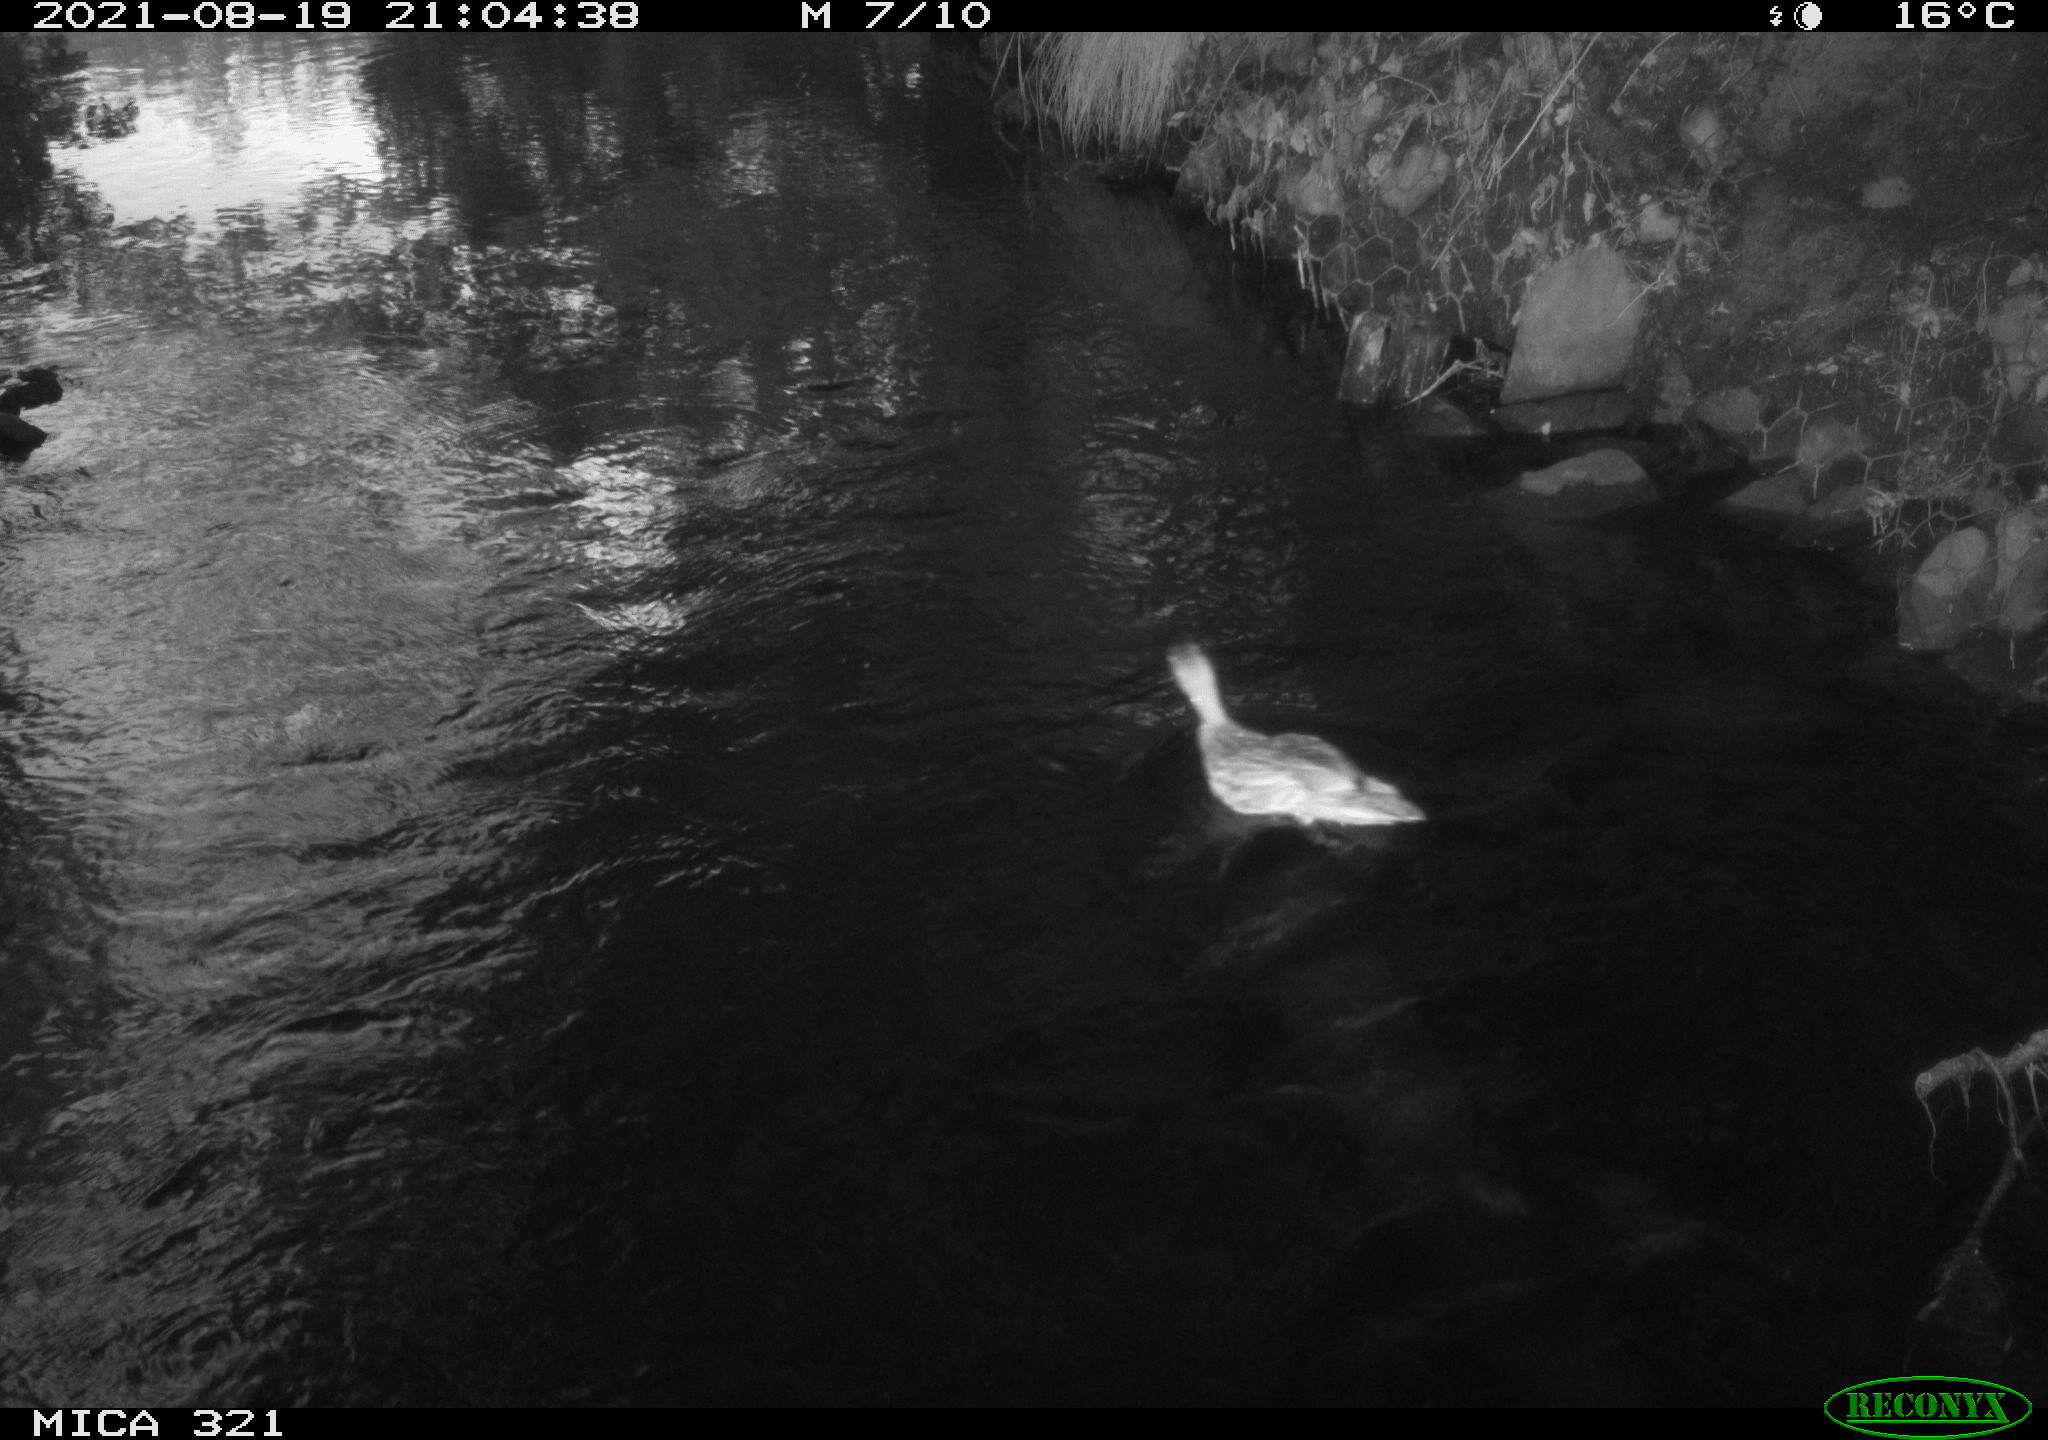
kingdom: Animalia
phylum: Chordata
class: Aves
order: Anseriformes
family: Anatidae
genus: Anas
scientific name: Anas platyrhynchos
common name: Mallard
